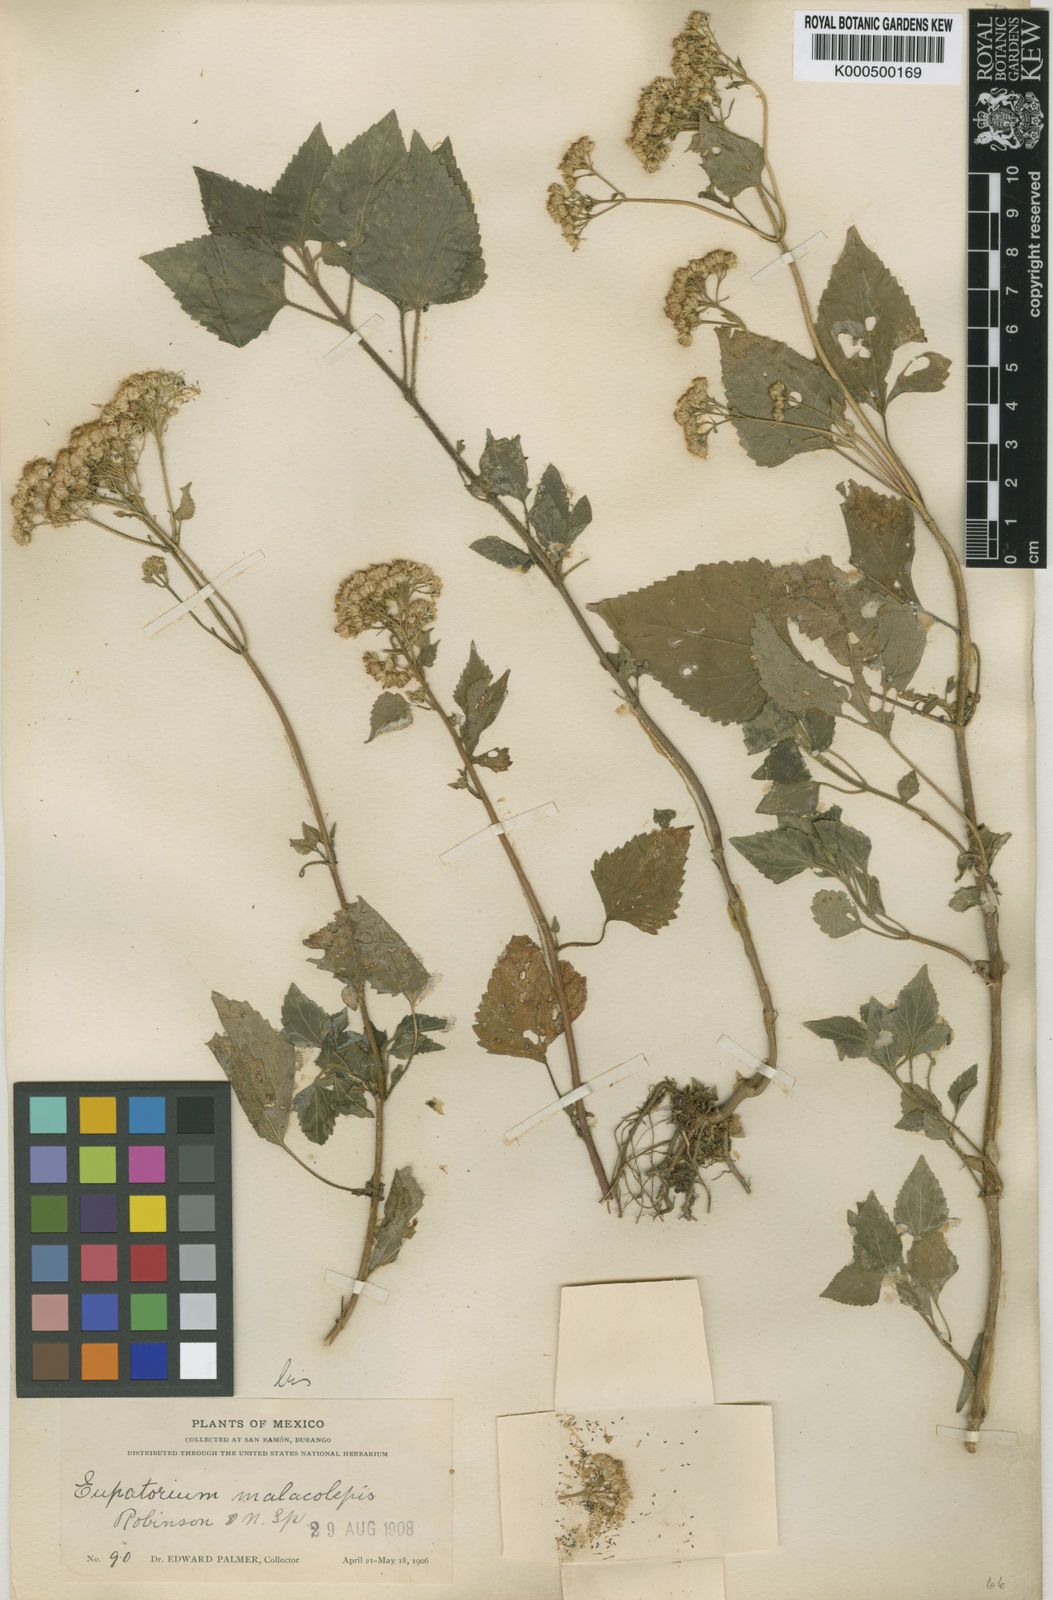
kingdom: Plantae
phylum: Tracheophyta
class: Magnoliopsida
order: Asterales
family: Asteraceae
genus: Ageratina
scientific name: Ageratina malacolepis
